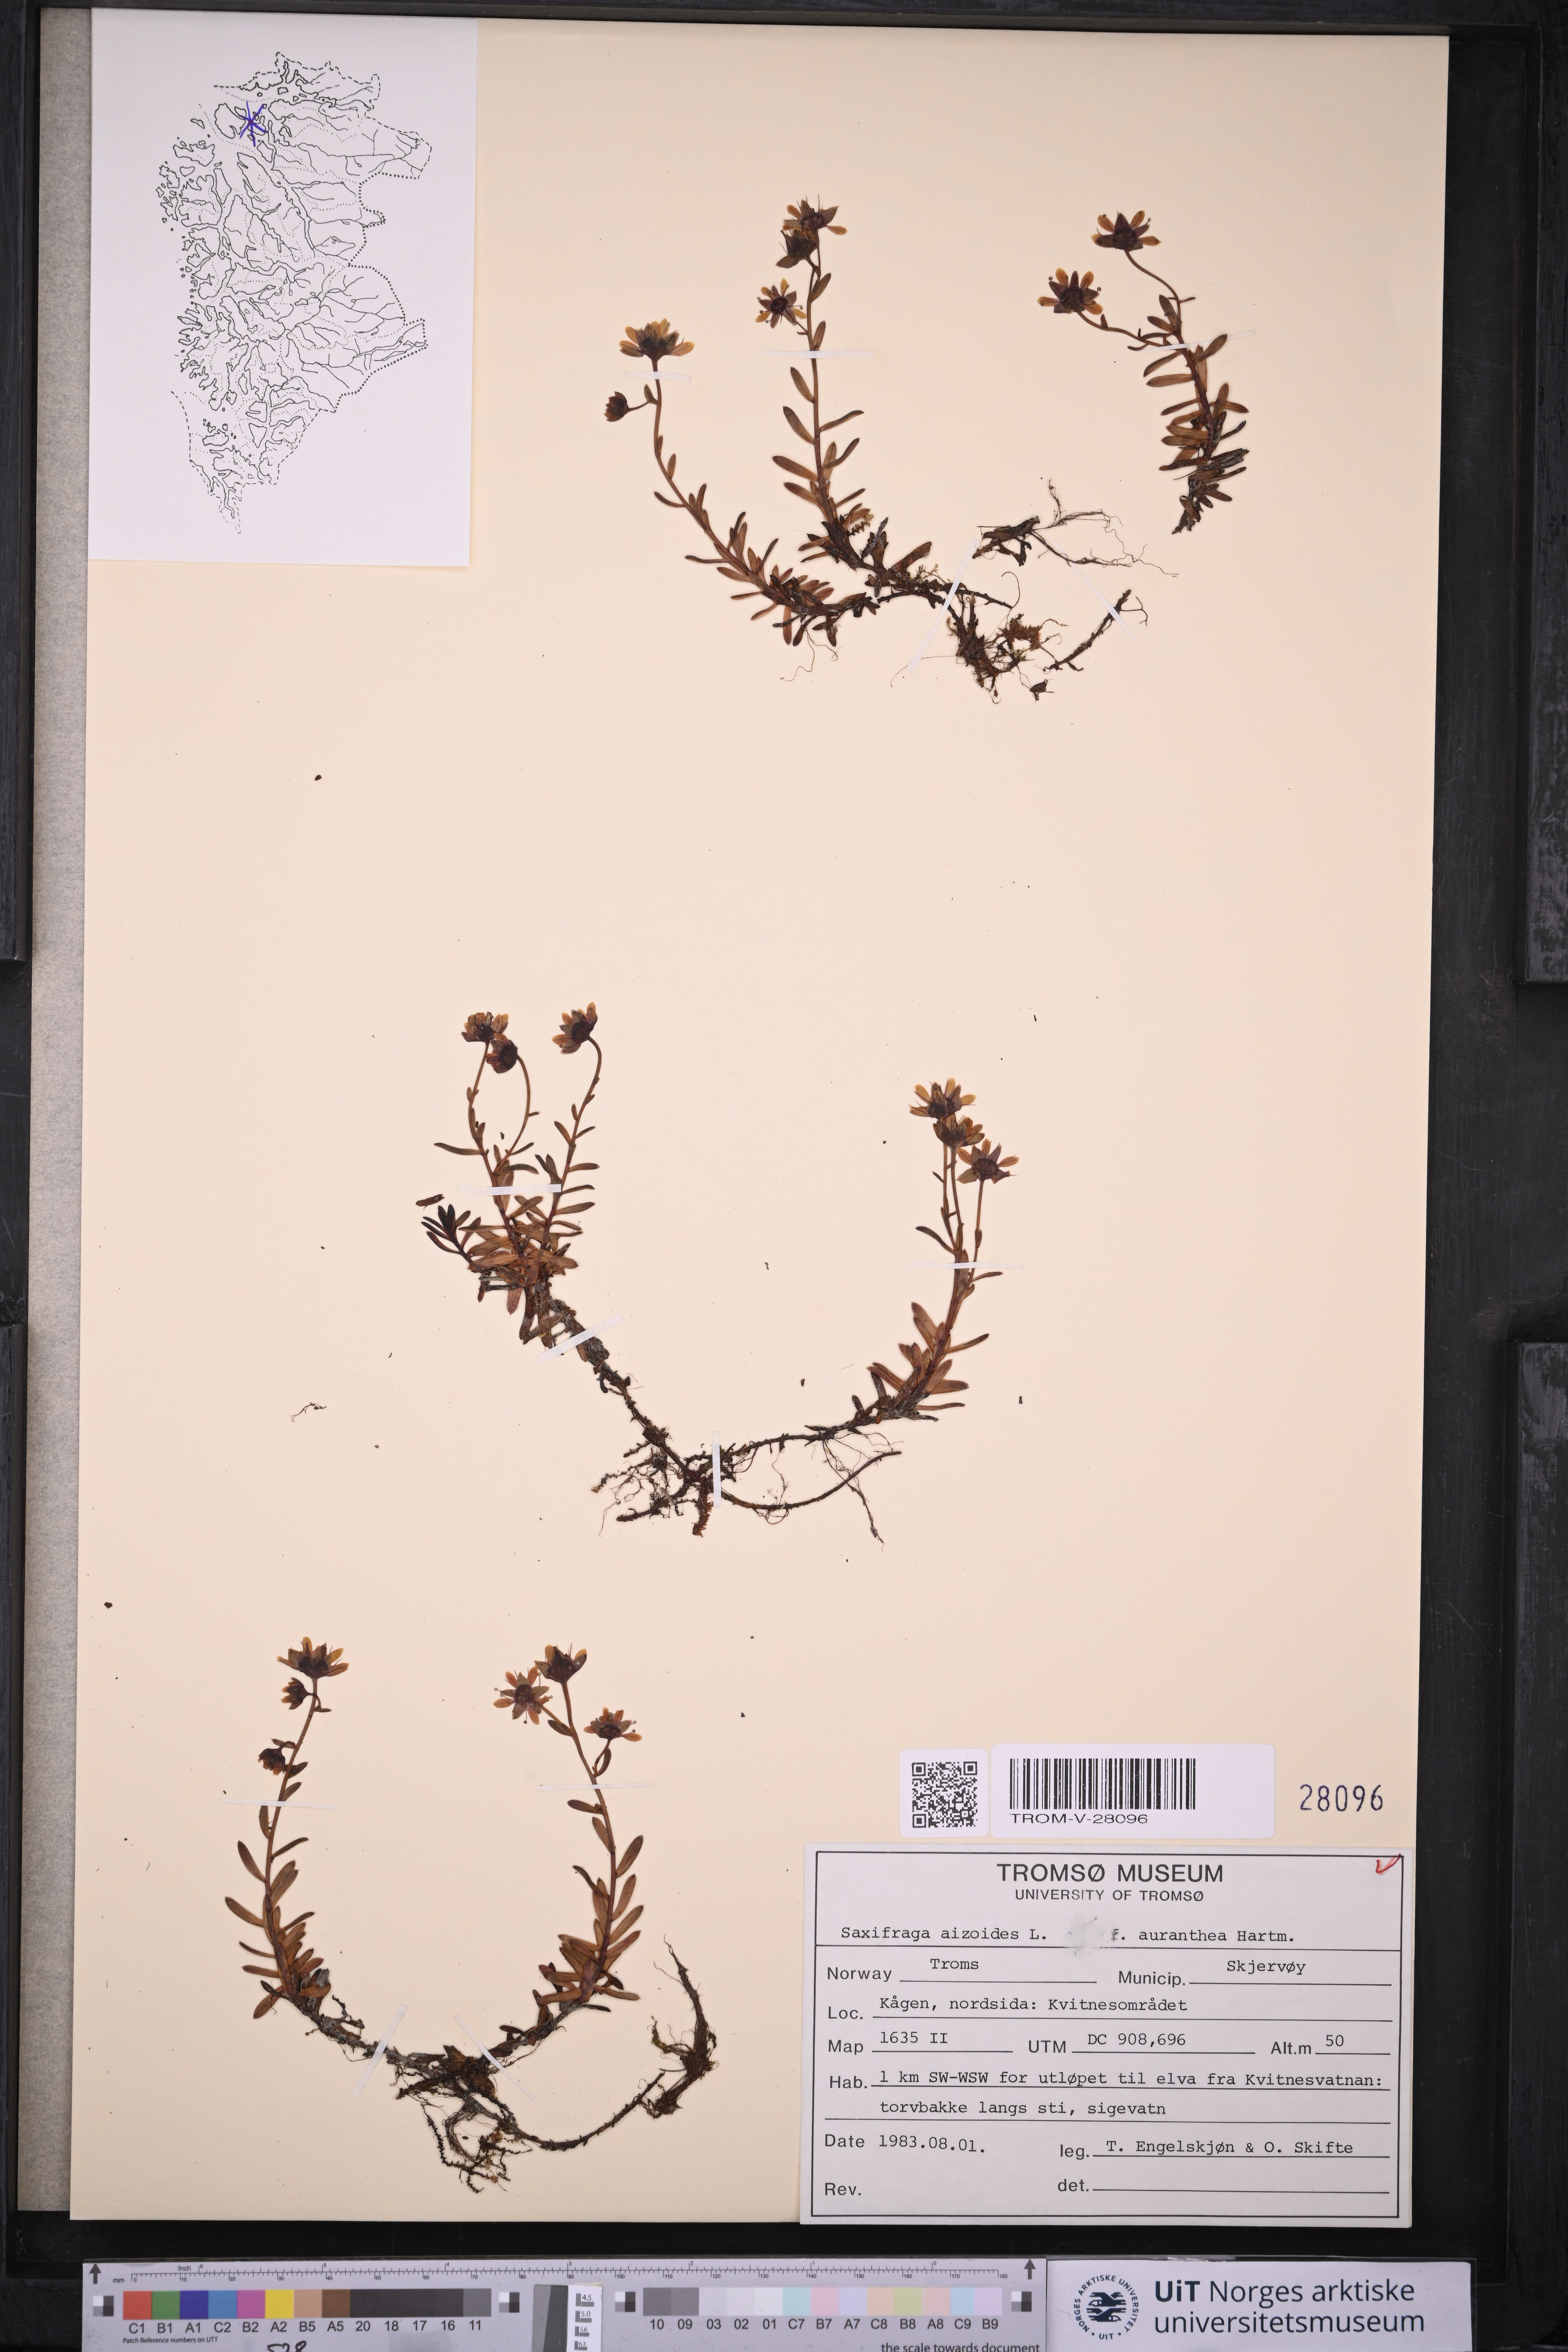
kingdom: Plantae
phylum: Tracheophyta
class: Magnoliopsida
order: Saxifragales
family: Saxifragaceae
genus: Saxifraga
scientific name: Saxifraga aizoides
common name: Yellow mountain saxifrage
